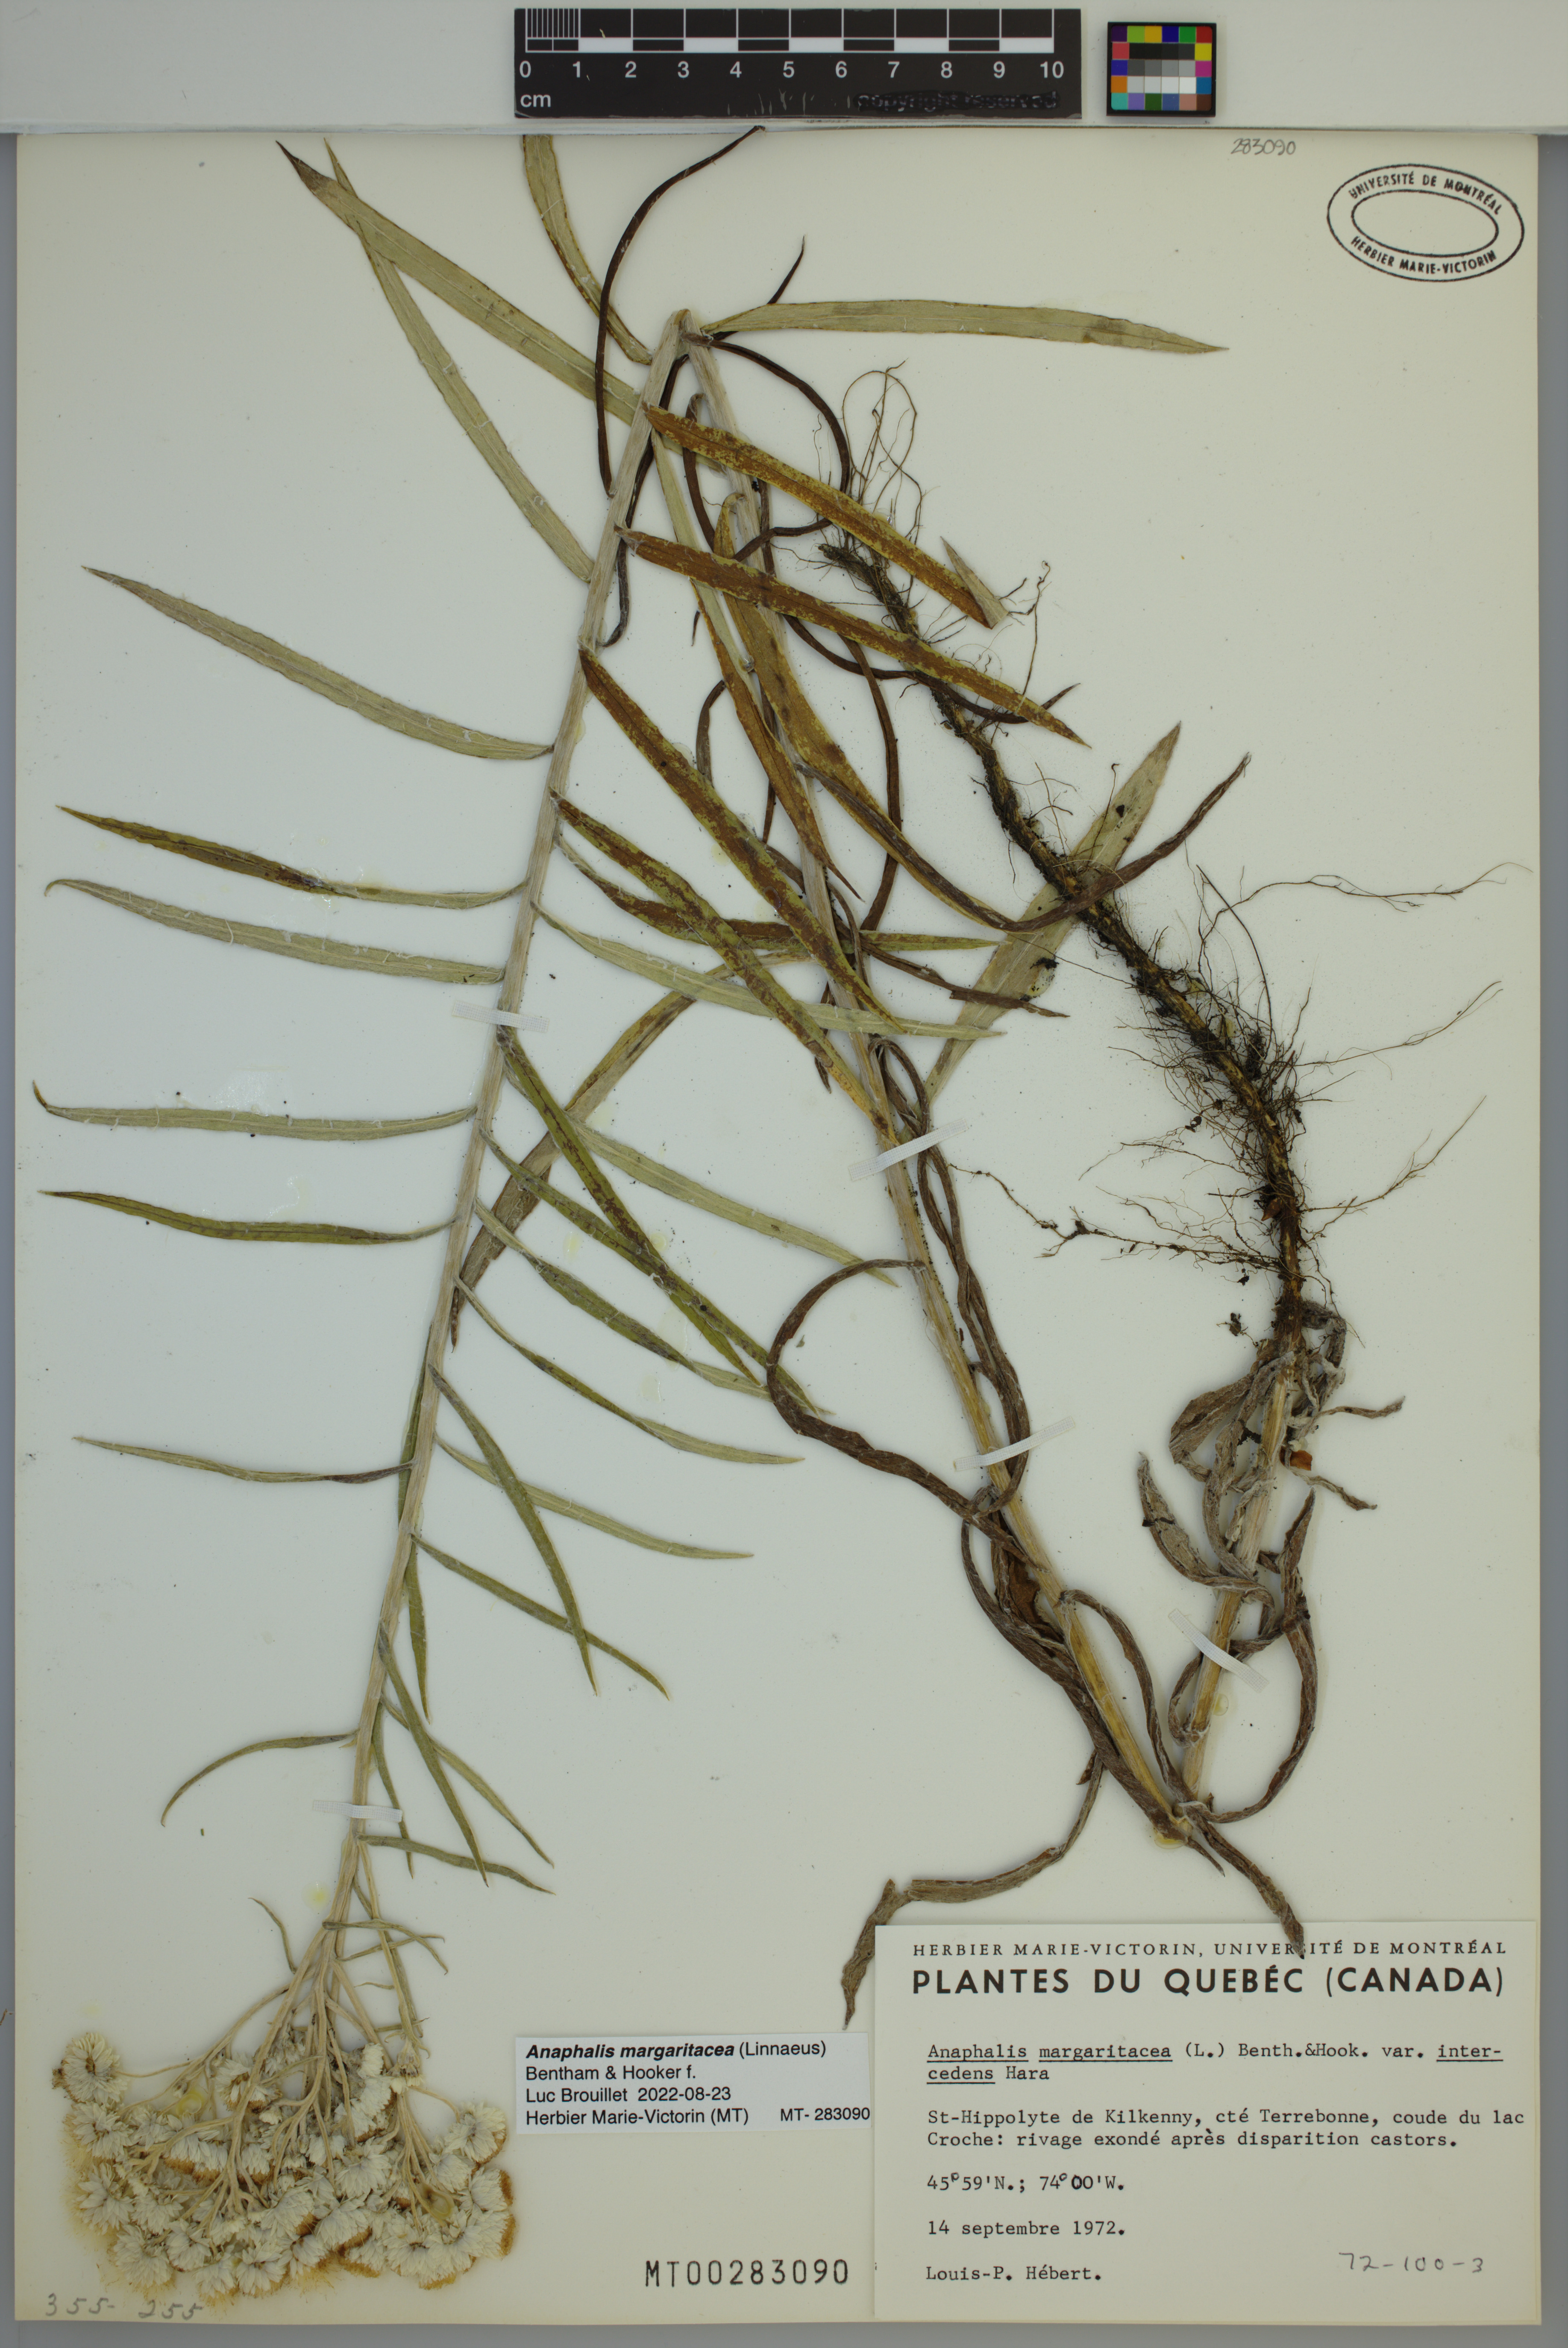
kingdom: Plantae
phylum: Tracheophyta
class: Magnoliopsida
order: Asterales
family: Asteraceae
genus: Anaphalis
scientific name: Anaphalis margaritacea
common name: Pearly everlasting
